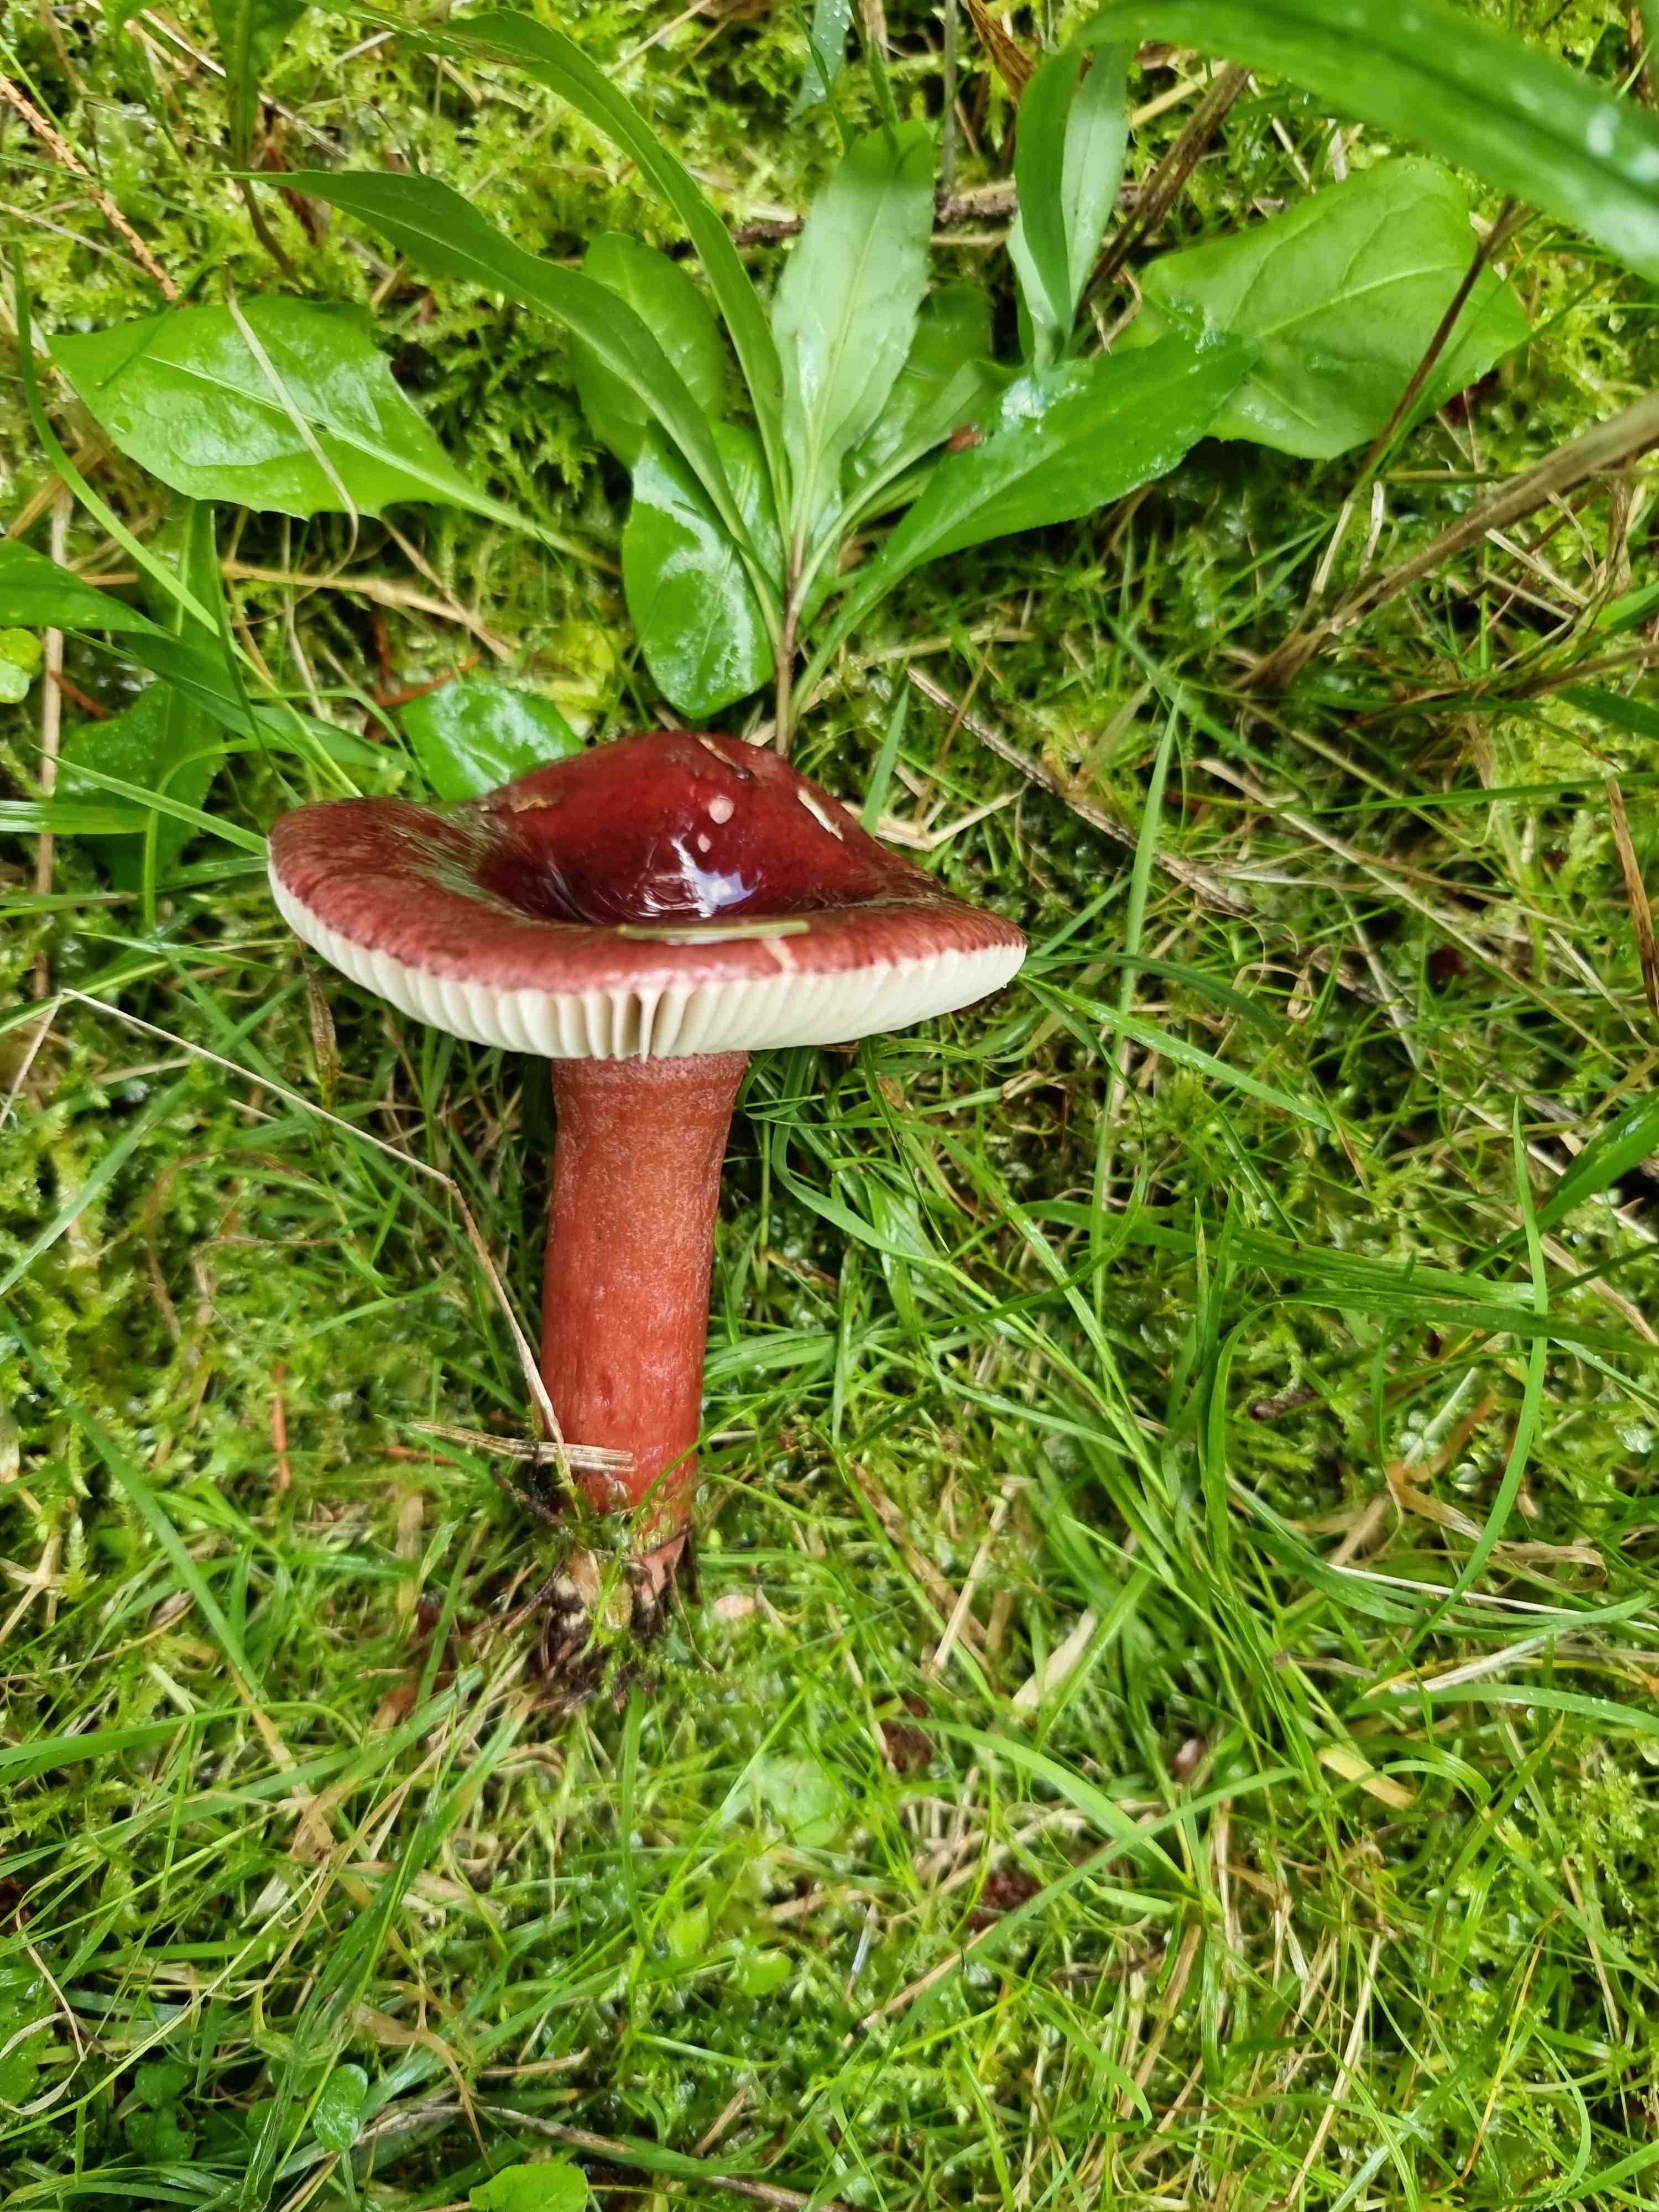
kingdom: Fungi
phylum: Basidiomycota
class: Agaricomycetes
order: Russulales
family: Russulaceae
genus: Russula
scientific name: Russula queletii
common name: Quélets skørhat
